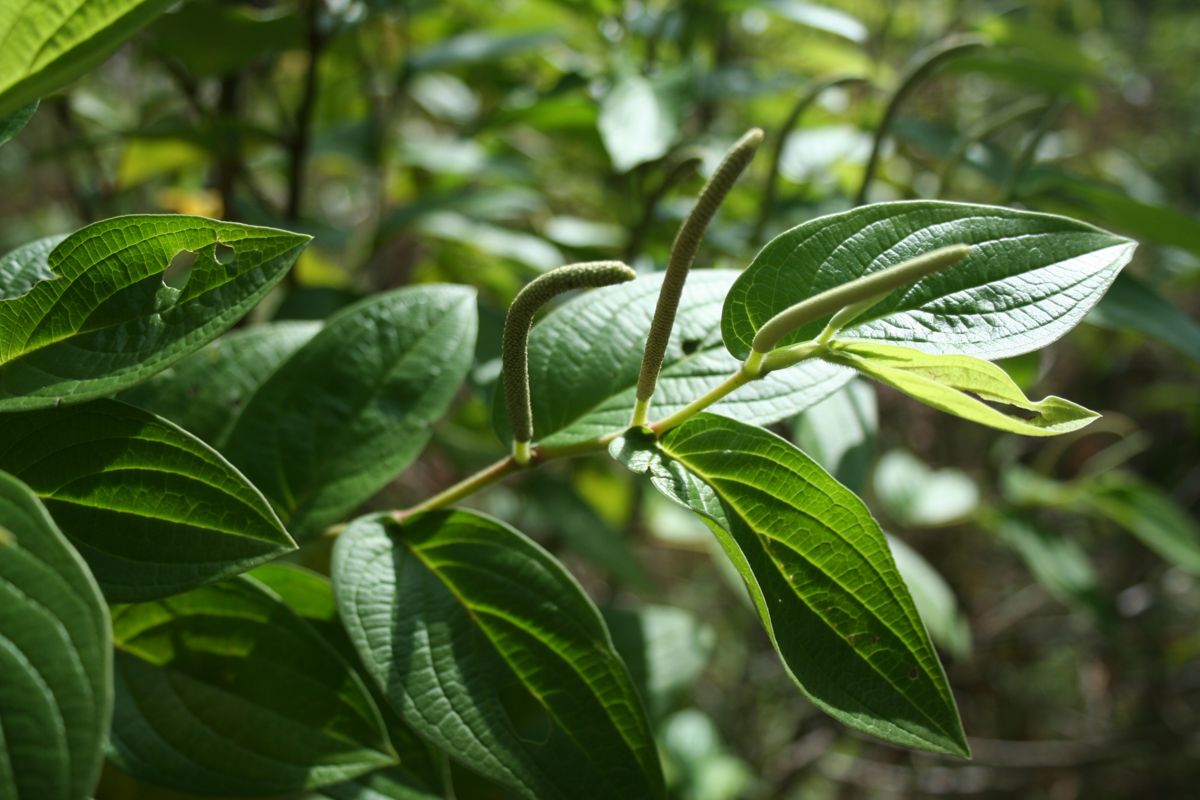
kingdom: Plantae
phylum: Tracheophyta
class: Magnoliopsida
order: Piperales
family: Piperaceae
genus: Piper
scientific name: Piper aduncum
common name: Spiked pepper
